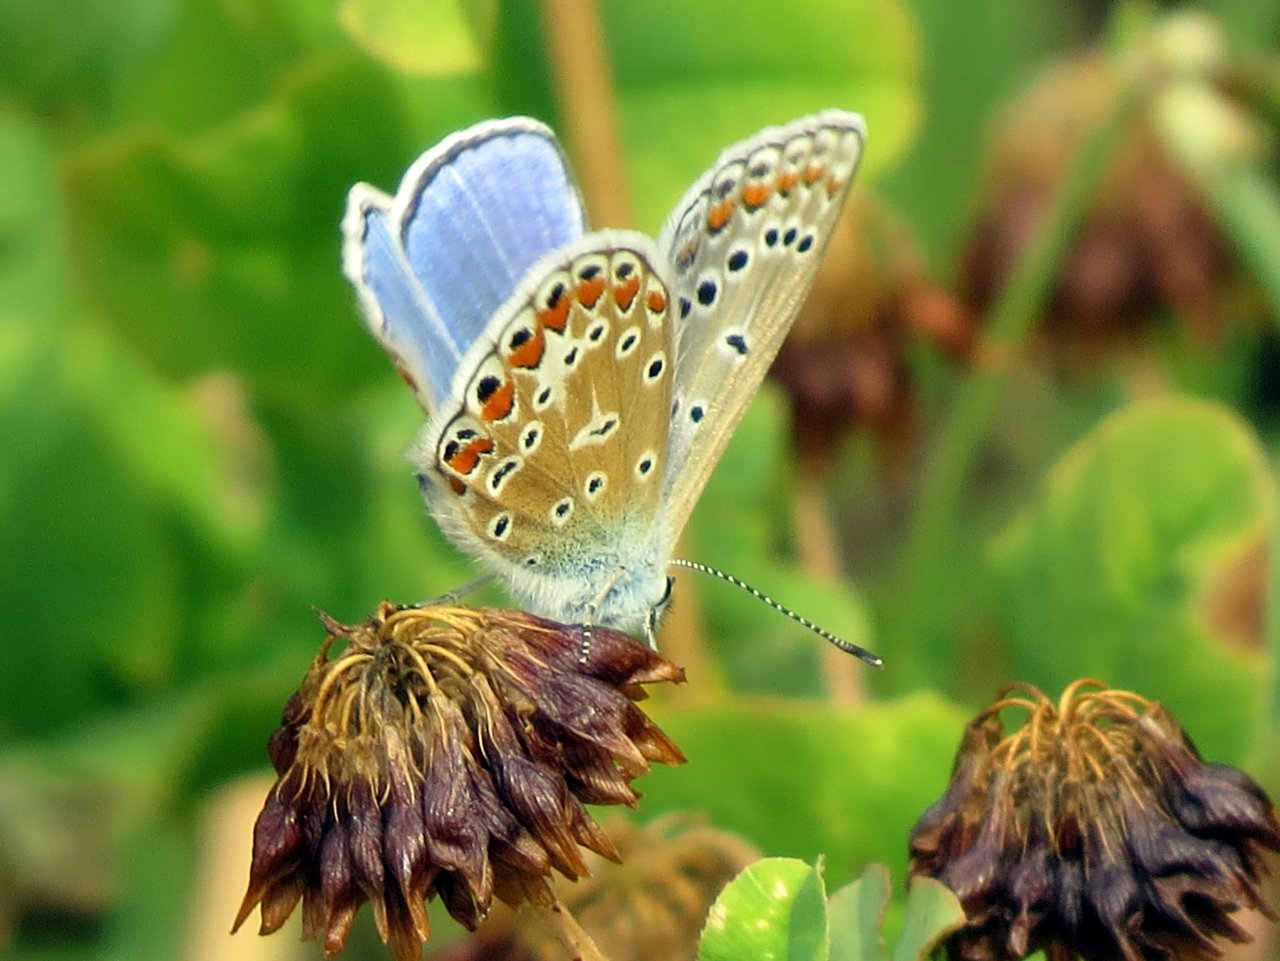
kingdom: Animalia
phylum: Arthropoda
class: Insecta
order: Lepidoptera
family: Lycaenidae
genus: Polyommatus
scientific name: Polyommatus icarus
